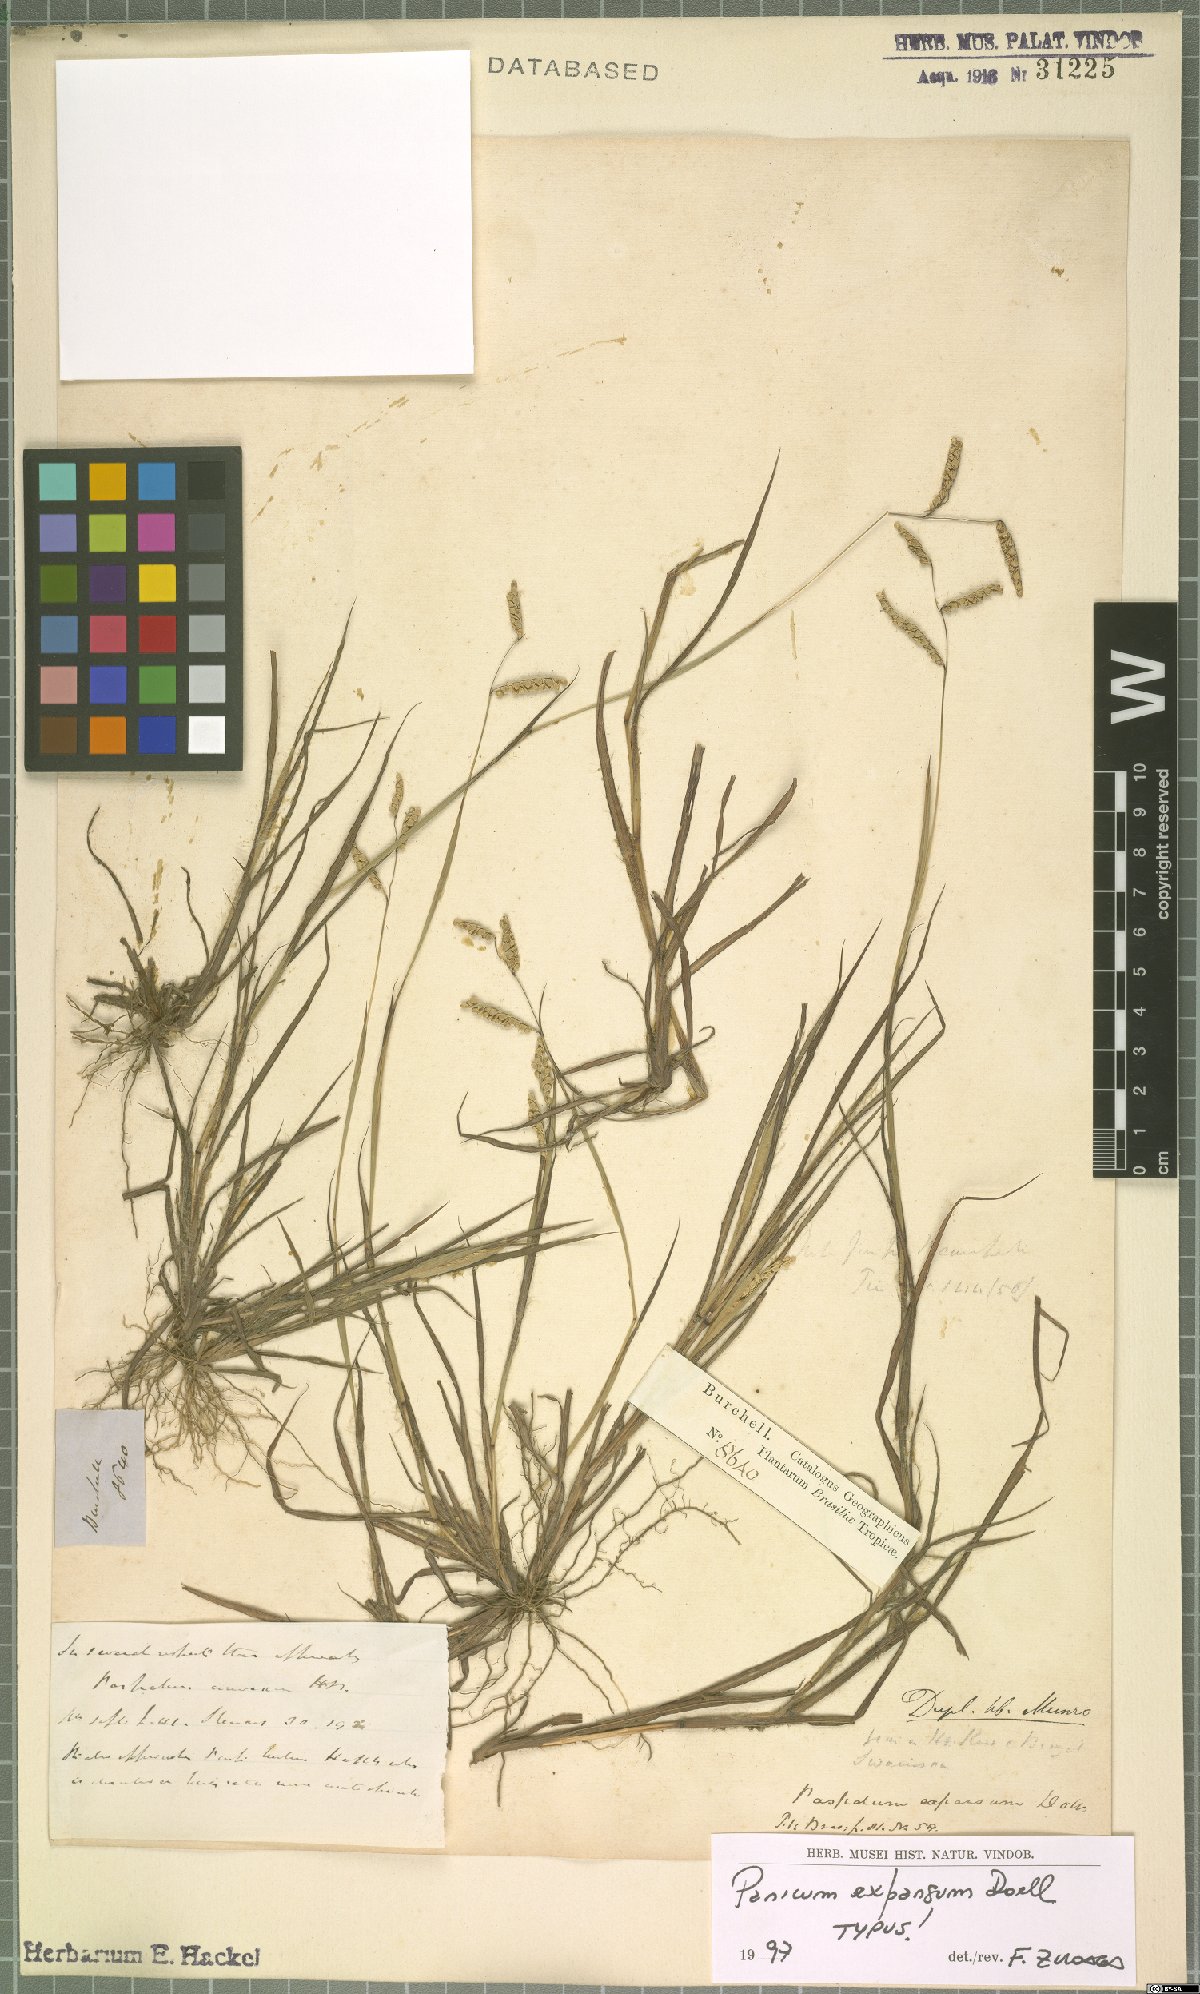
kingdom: Plantae
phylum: Tracheophyta
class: Liliopsida
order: Poales
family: Poaceae
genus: Paspalum
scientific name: Paspalum expansum
